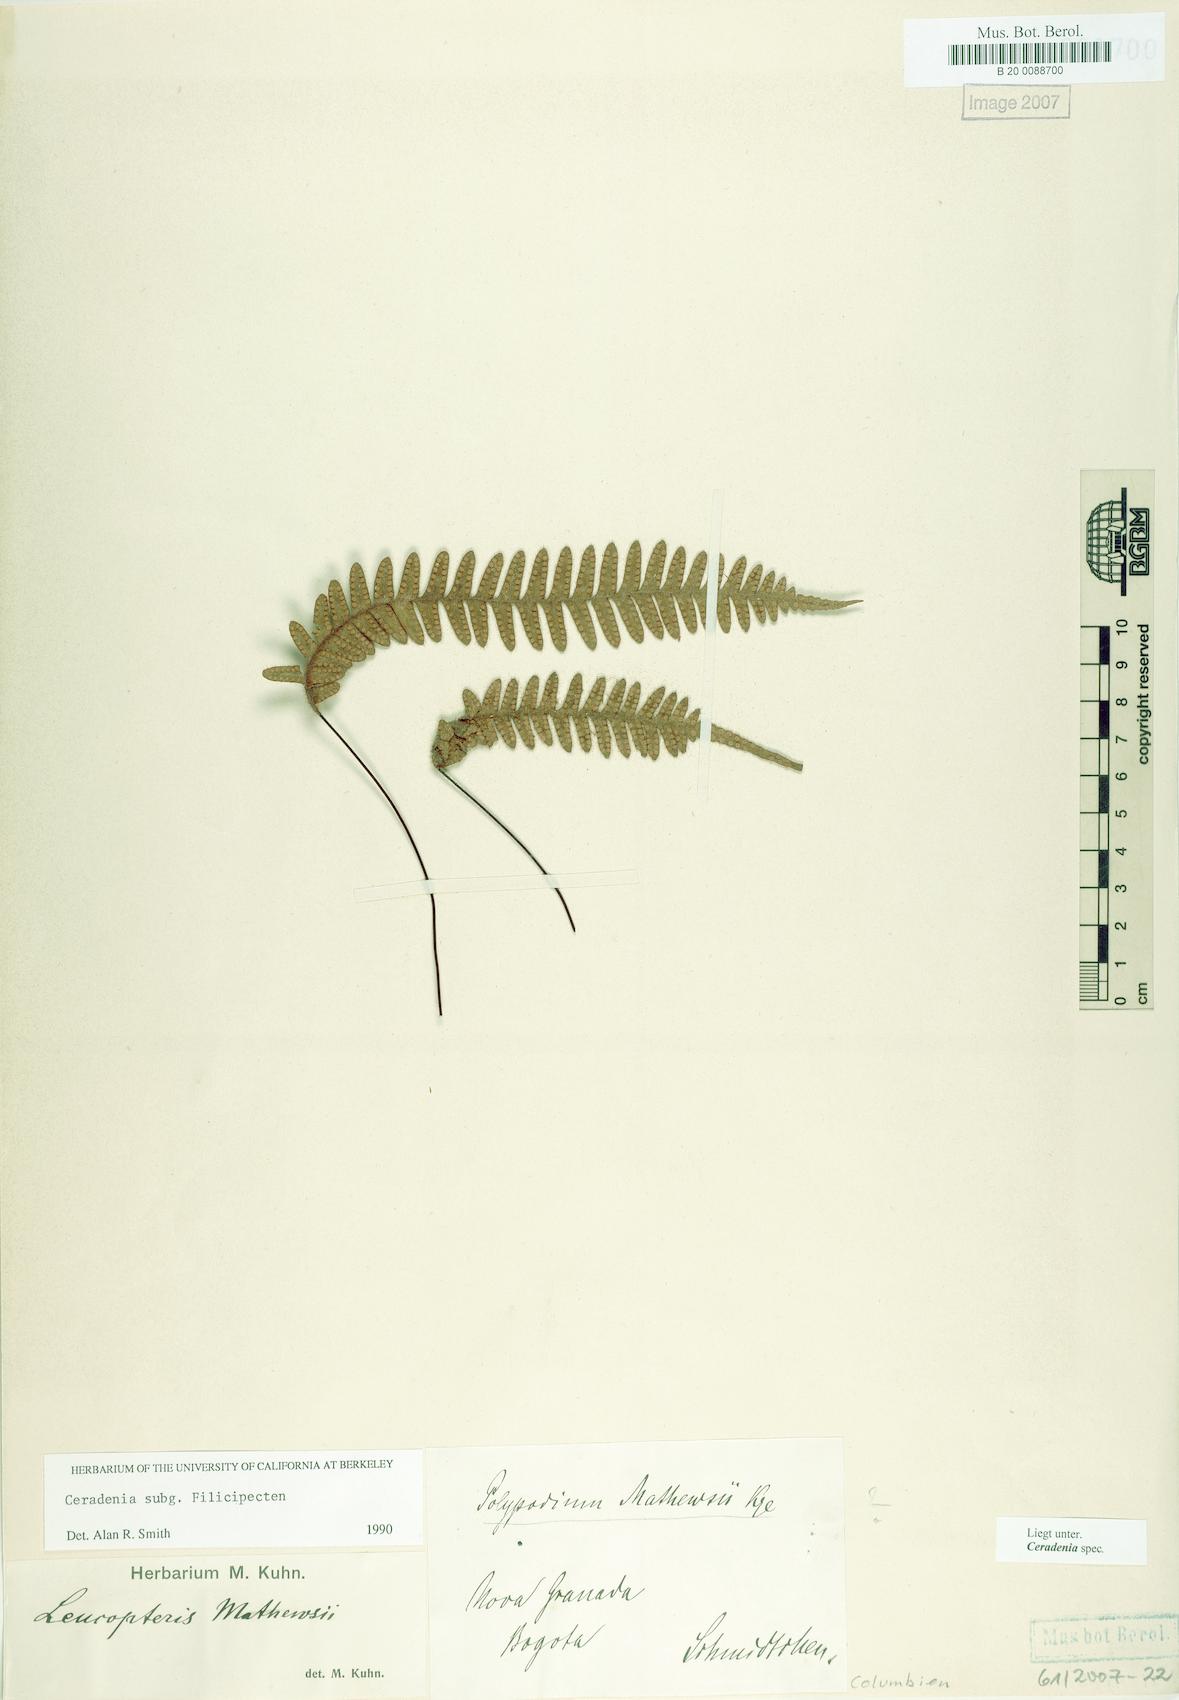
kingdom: Plantae
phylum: Tracheophyta
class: Polypodiopsida
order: Polypodiales
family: Polypodiaceae
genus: Ceradenia
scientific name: Ceradenia
